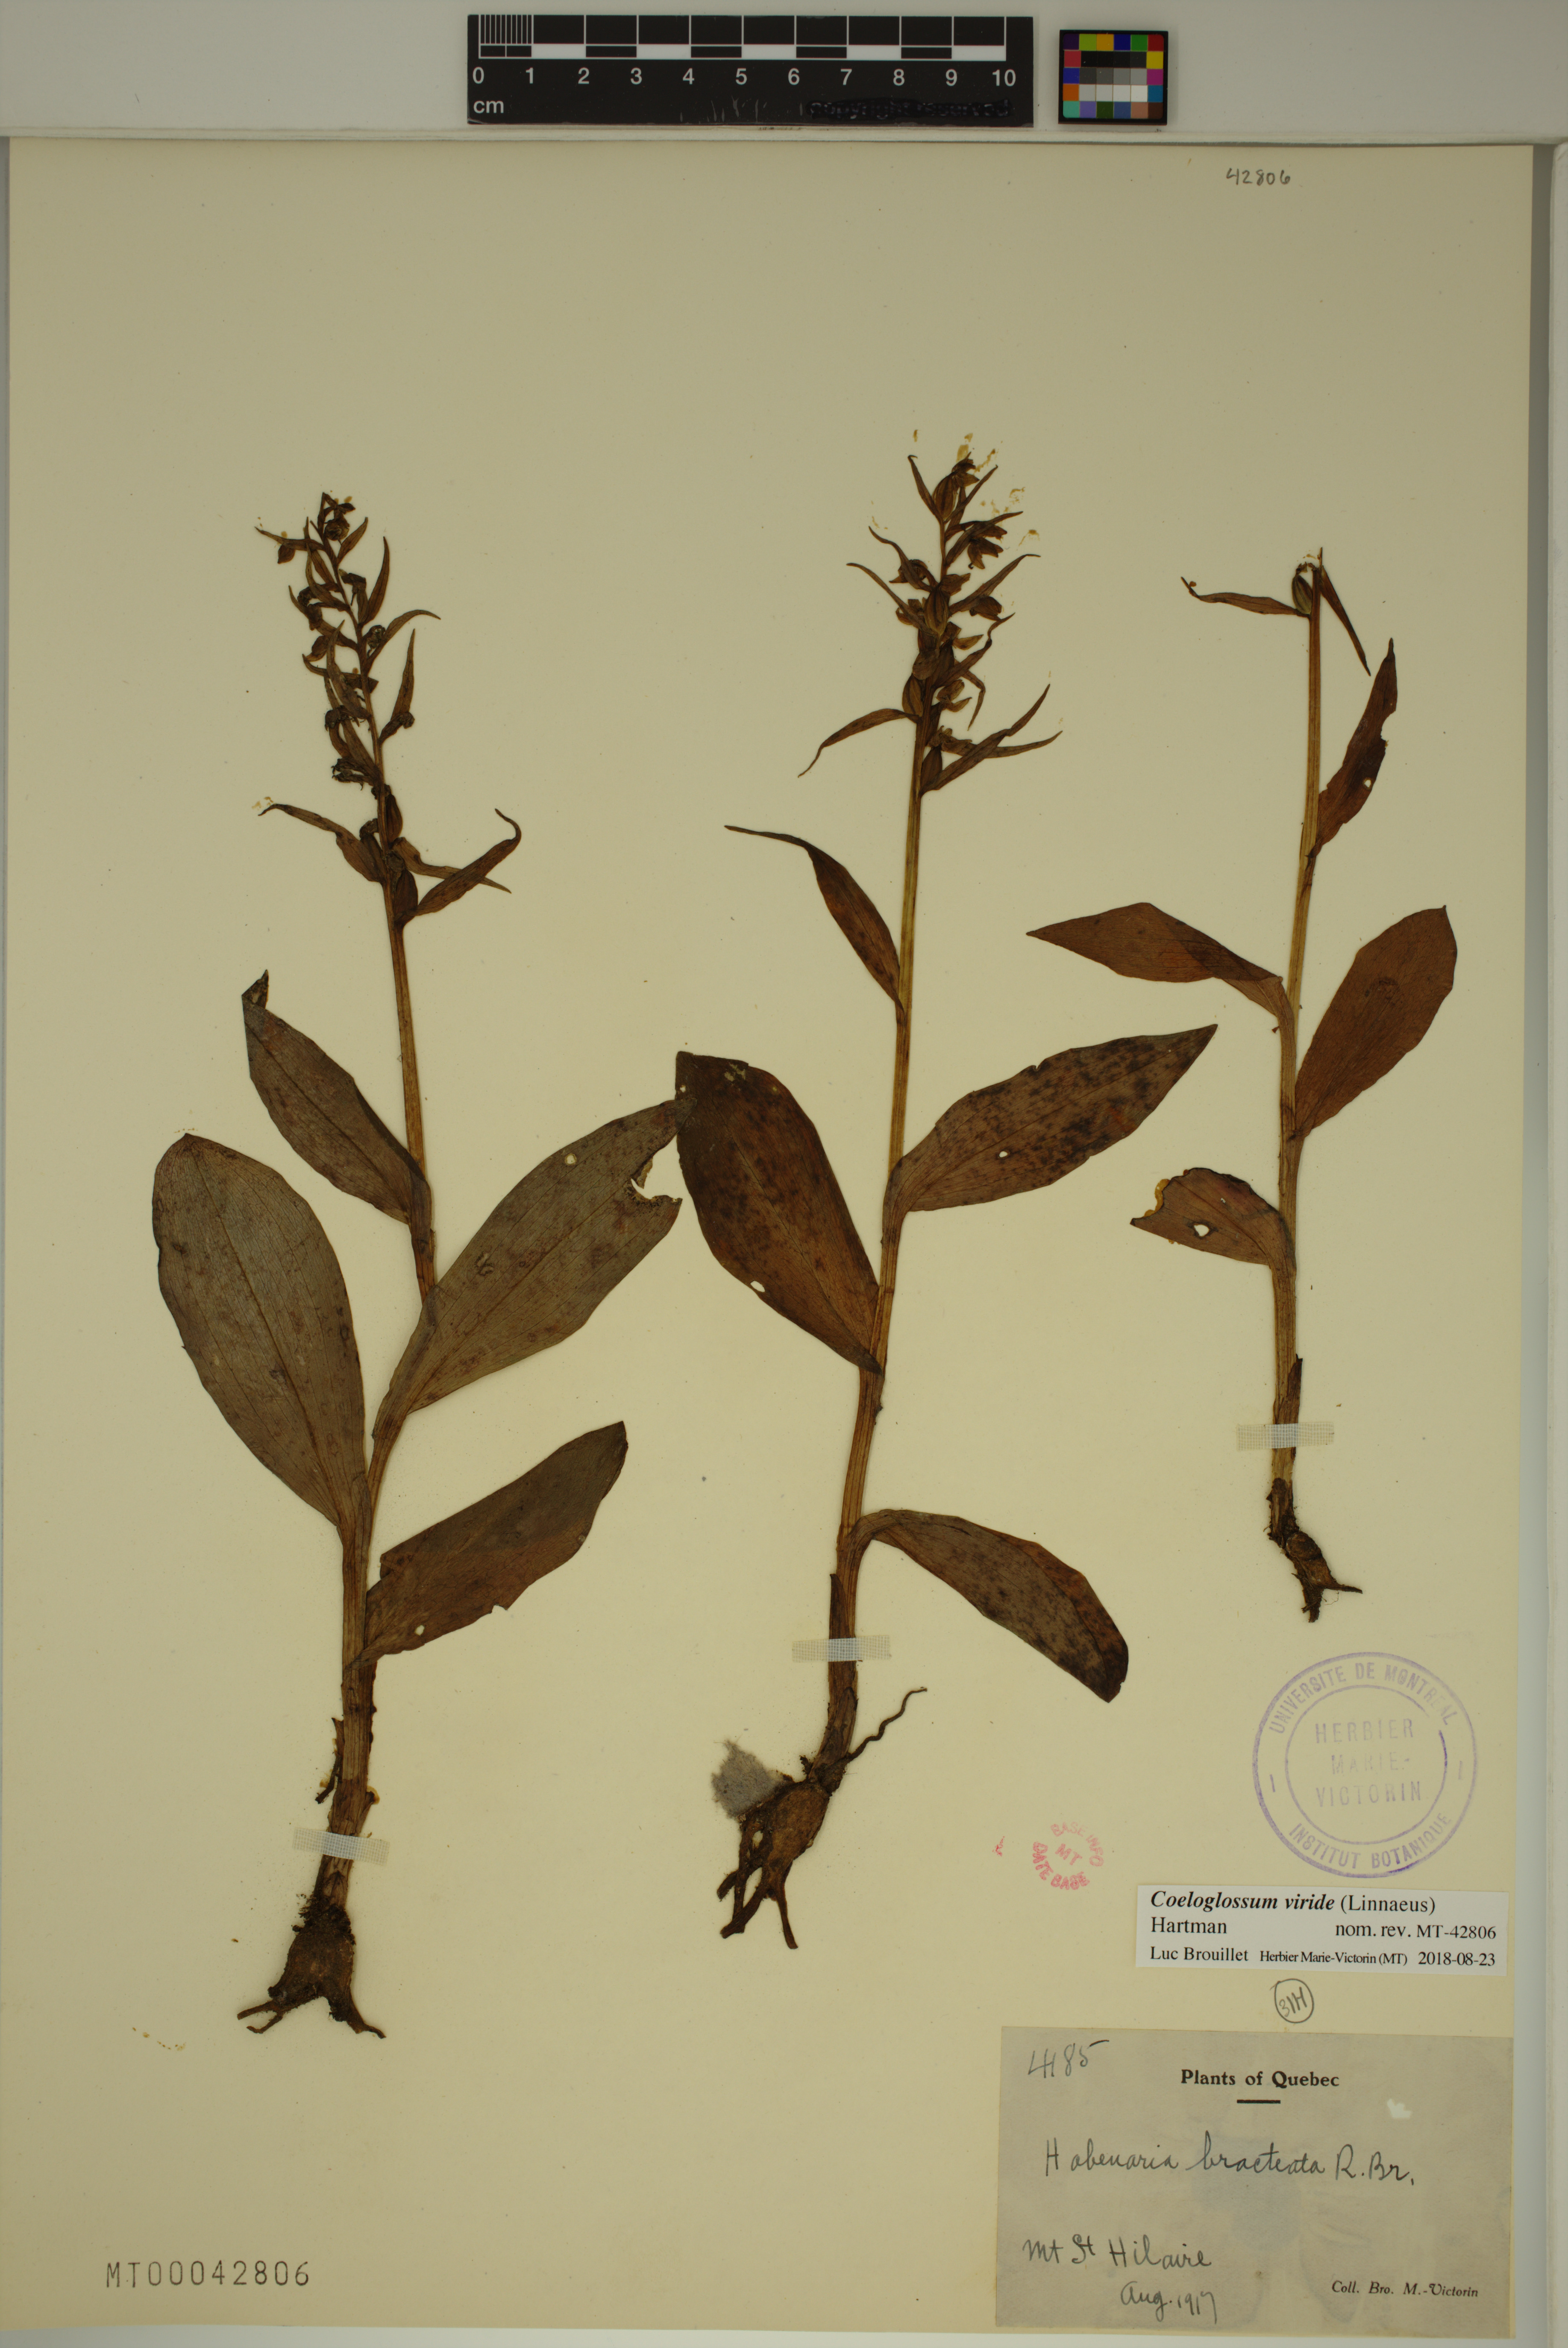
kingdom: Plantae
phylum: Tracheophyta
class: Liliopsida
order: Asparagales
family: Orchidaceae
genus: Dactylorhiza
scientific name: Dactylorhiza viridis
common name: Longbract frog orchid
